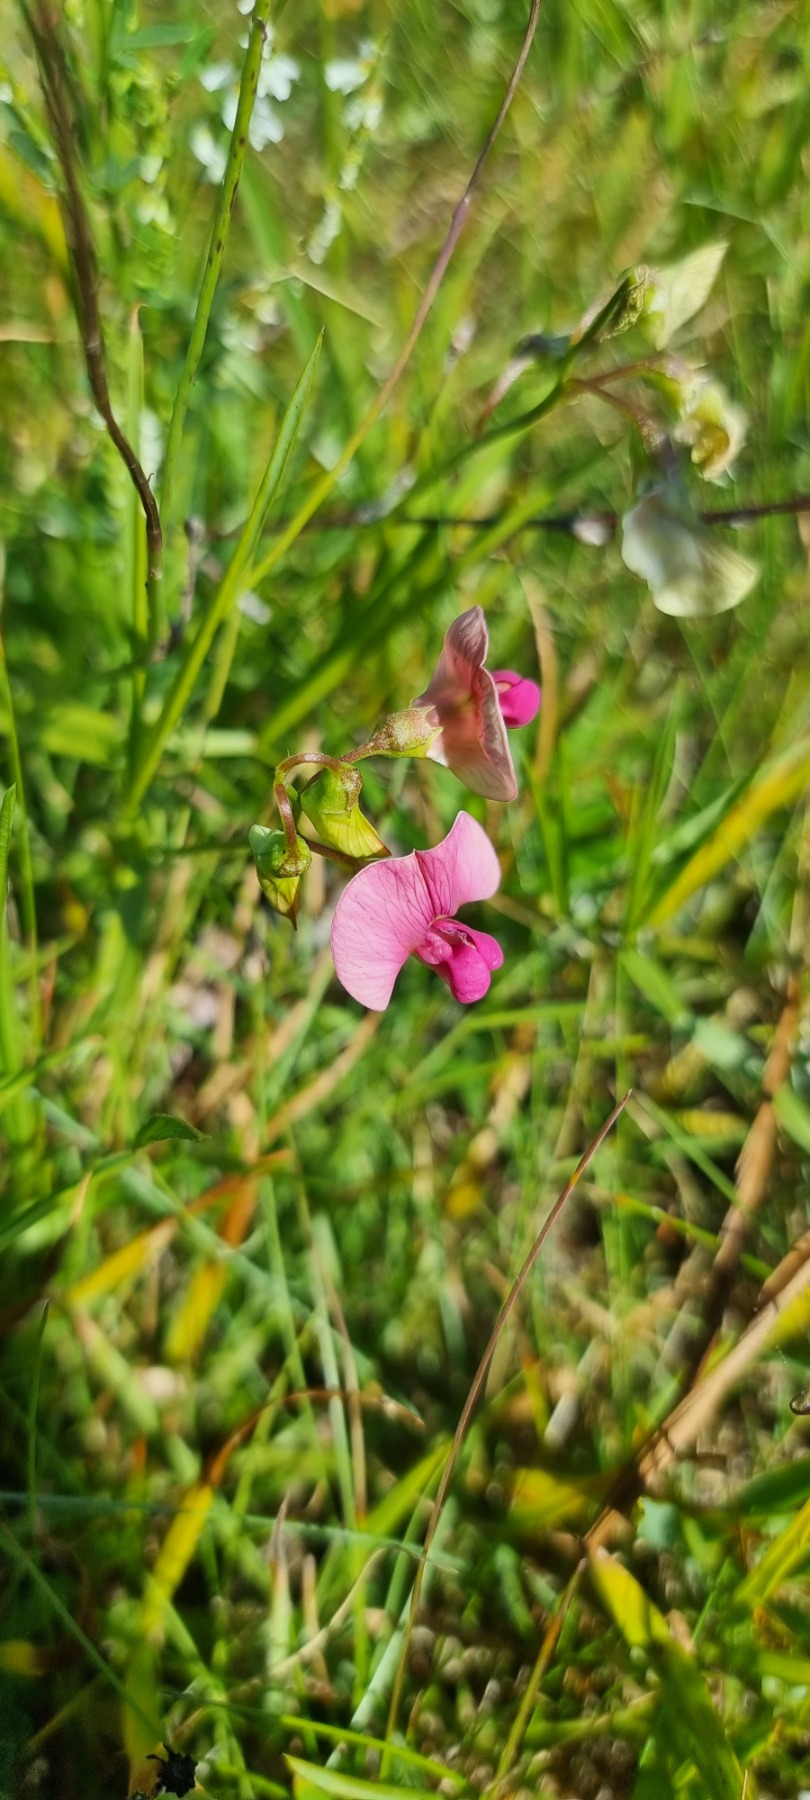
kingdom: Plantae
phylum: Tracheophyta
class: Magnoliopsida
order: Fabales
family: Fabaceae
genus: Lathyrus
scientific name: Lathyrus sylvestris
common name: Skov-fladbælg
